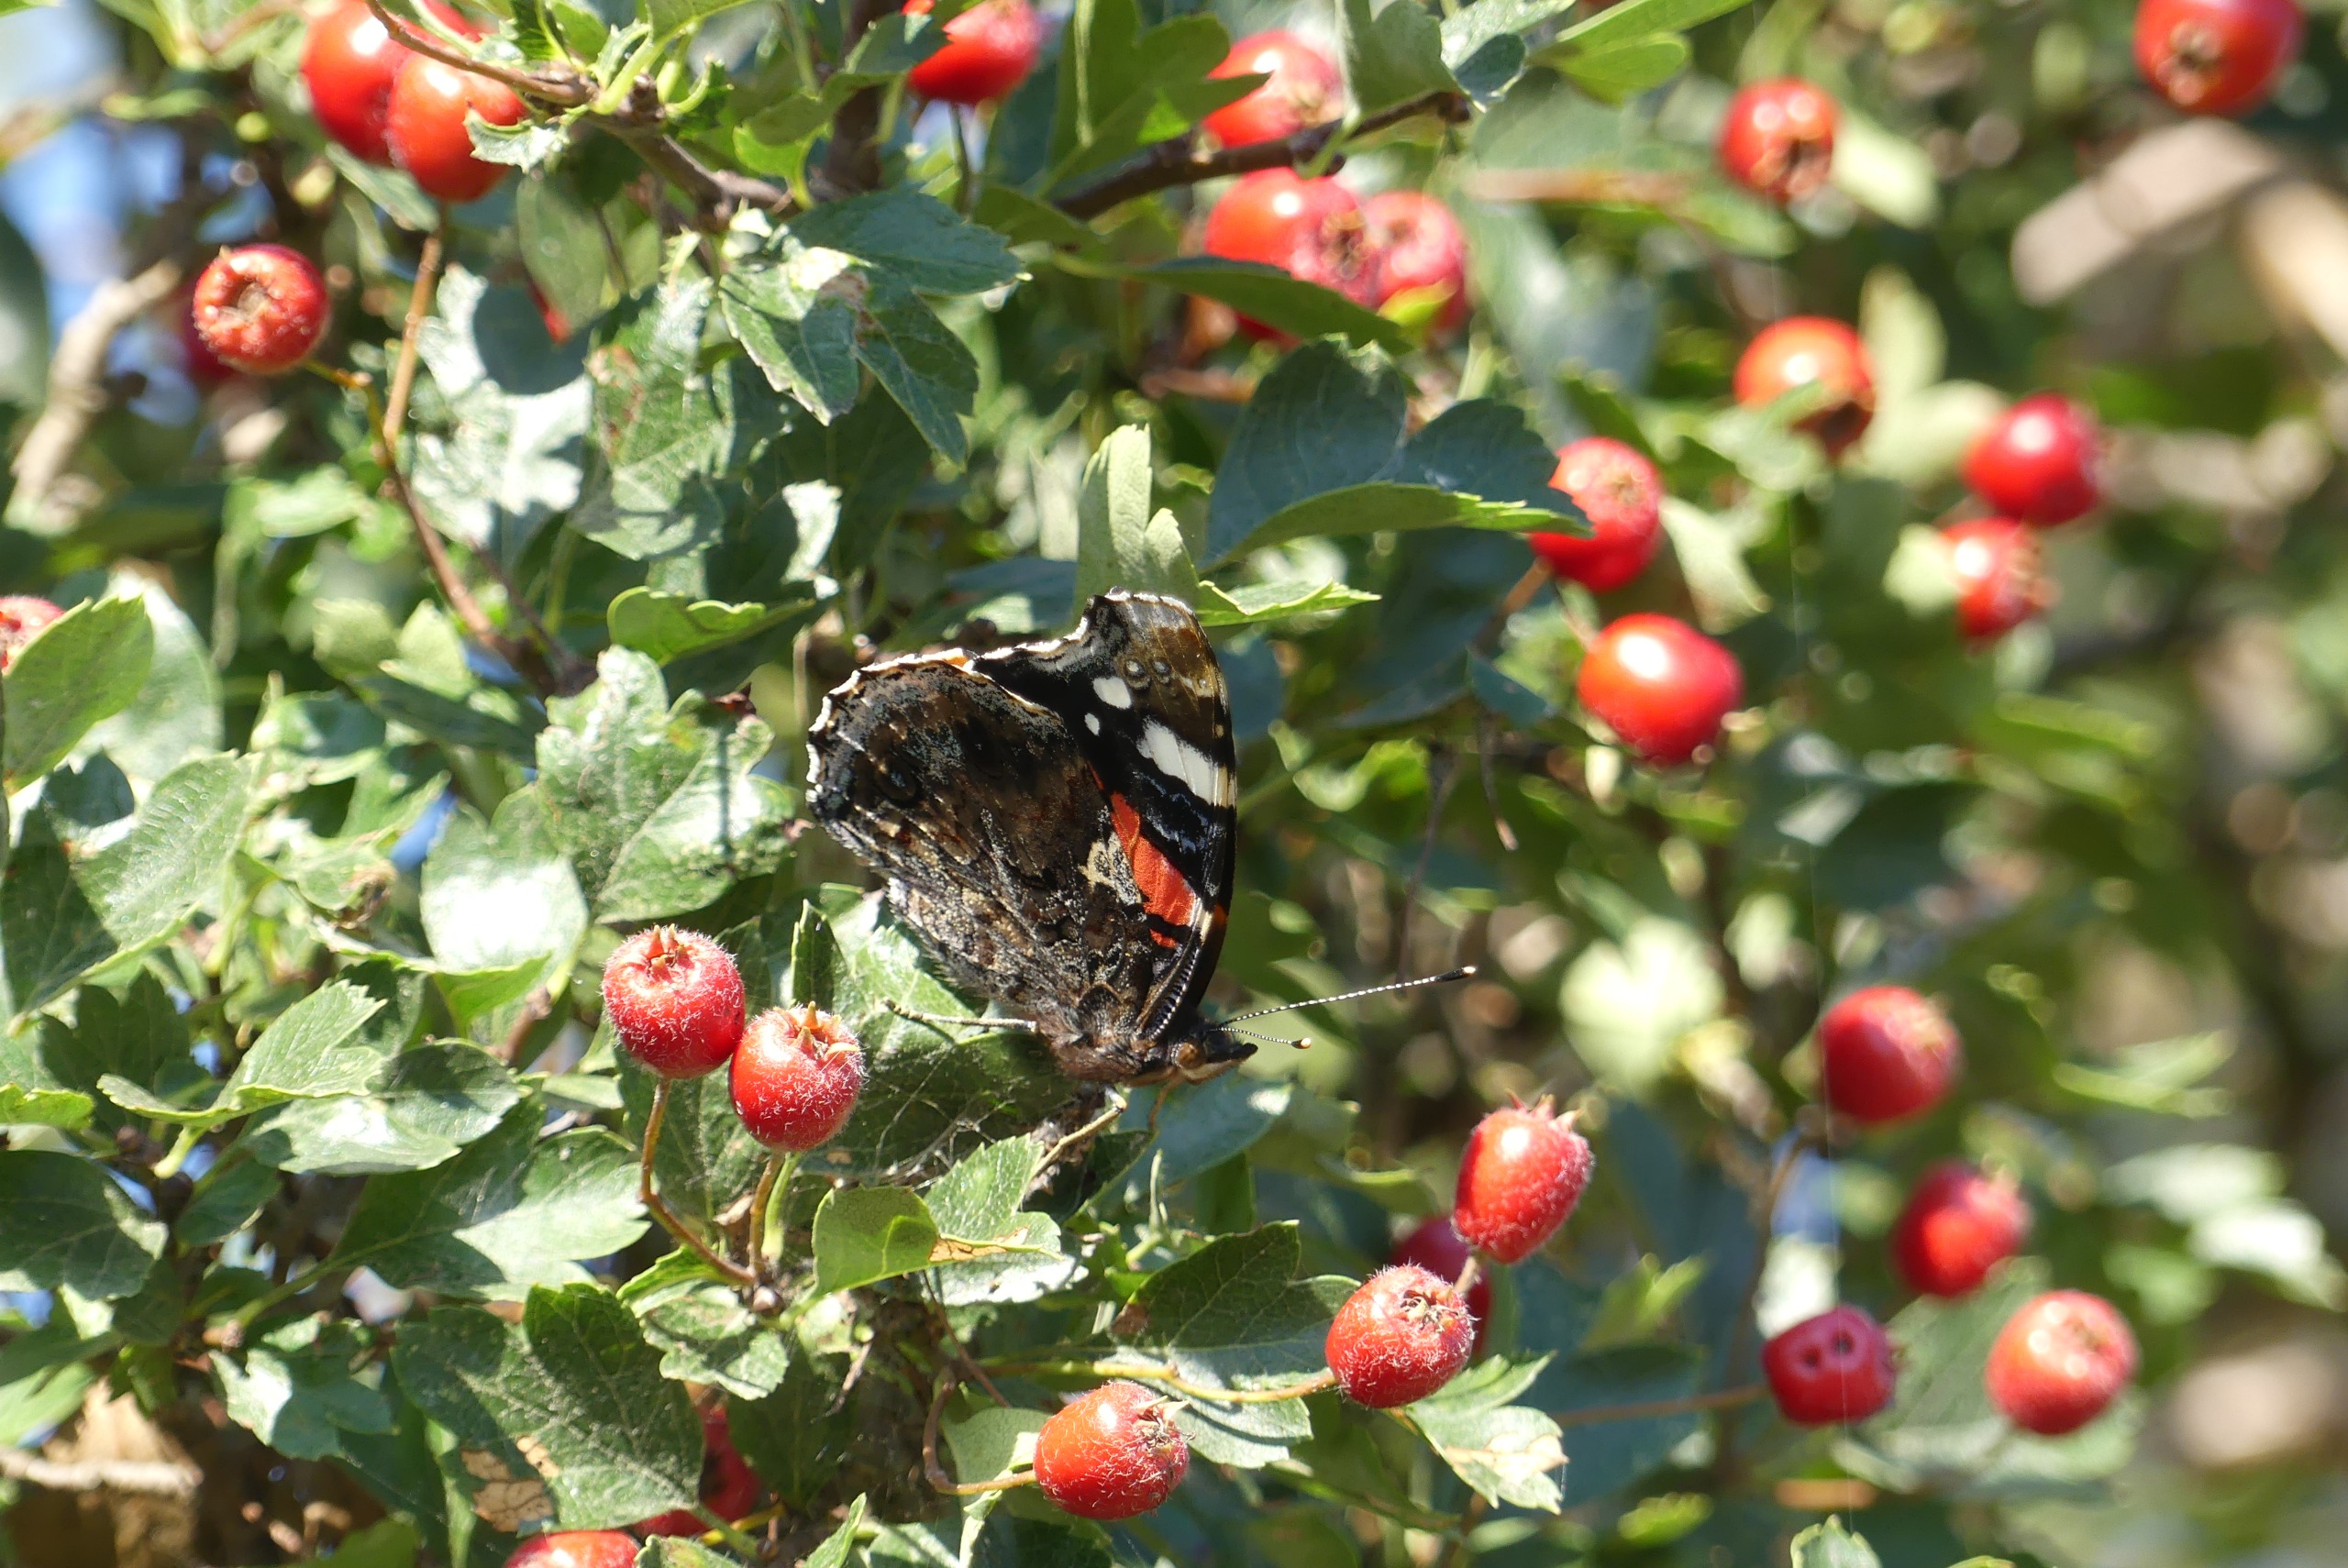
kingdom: Animalia
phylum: Arthropoda
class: Insecta
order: Lepidoptera
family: Nymphalidae
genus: Vanessa
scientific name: Vanessa atalanta
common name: Admiral
